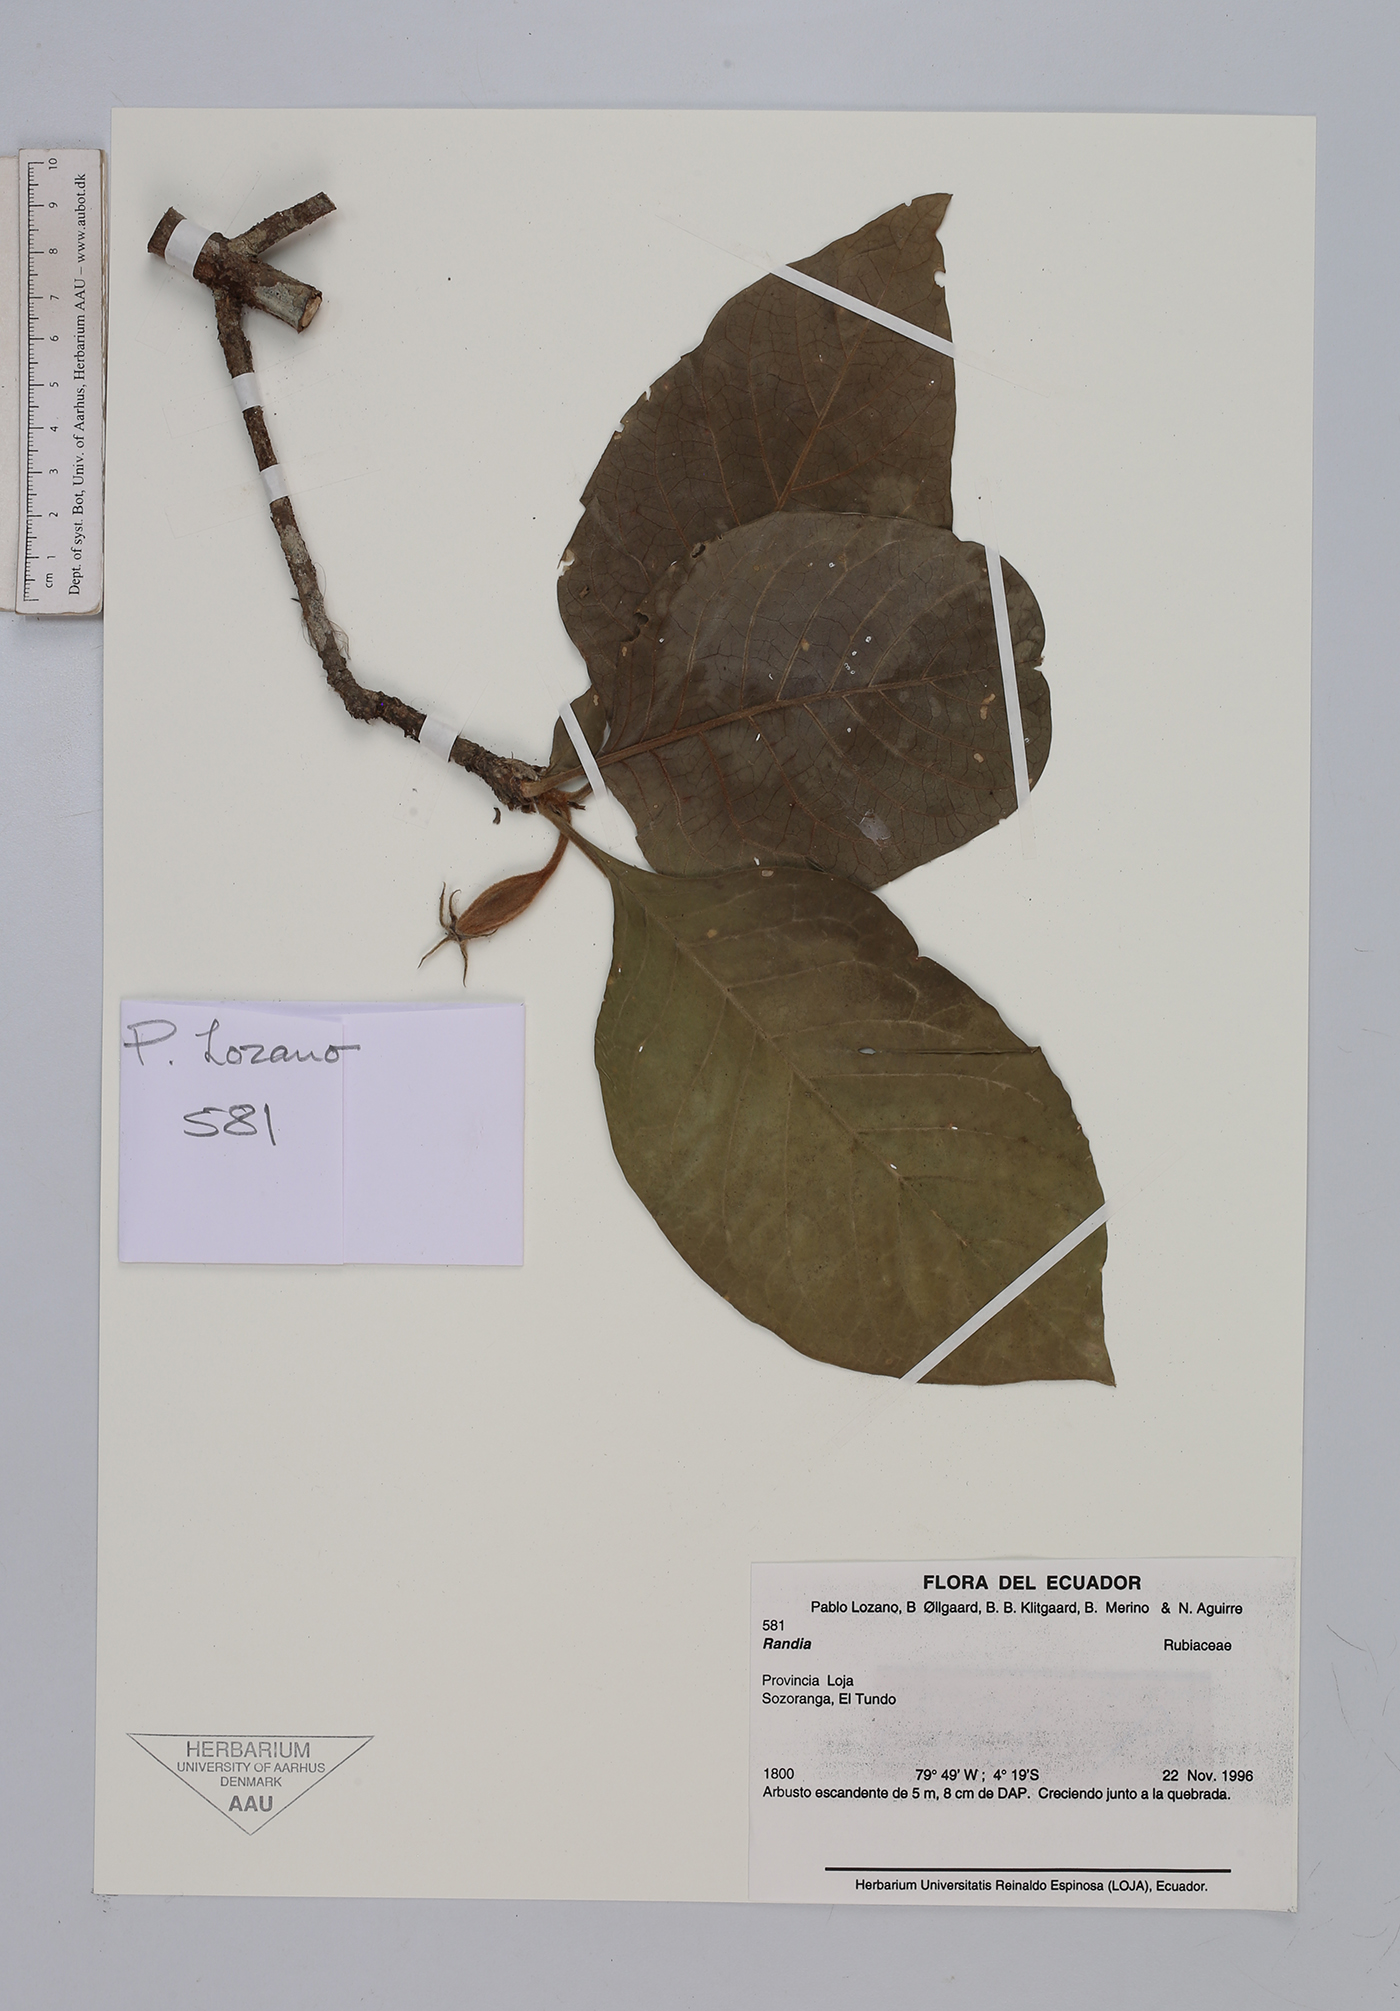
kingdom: Plantae
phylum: Tracheophyta
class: Magnoliopsida
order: Gentianales
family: Rubiaceae
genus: Randia
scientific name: Randia
